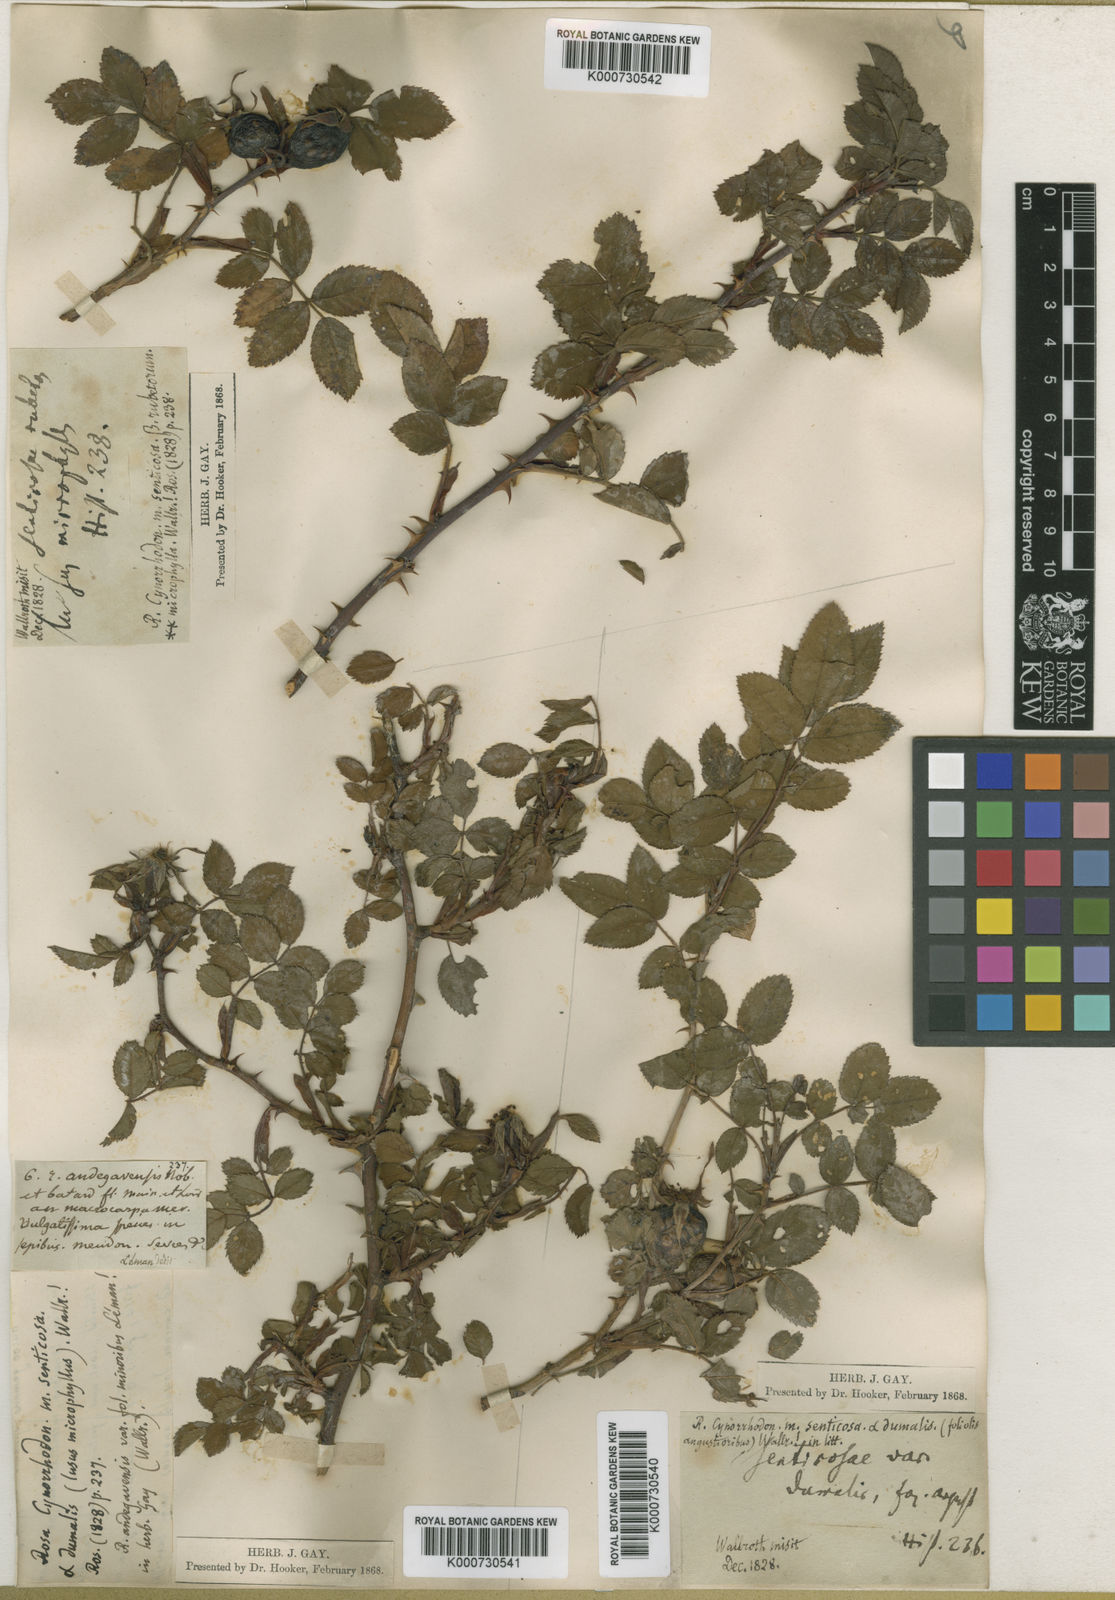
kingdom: Plantae
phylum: Tracheophyta
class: Magnoliopsida
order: Rosales
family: Rosaceae
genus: Rosa
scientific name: Rosa canina
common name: Dog rose
